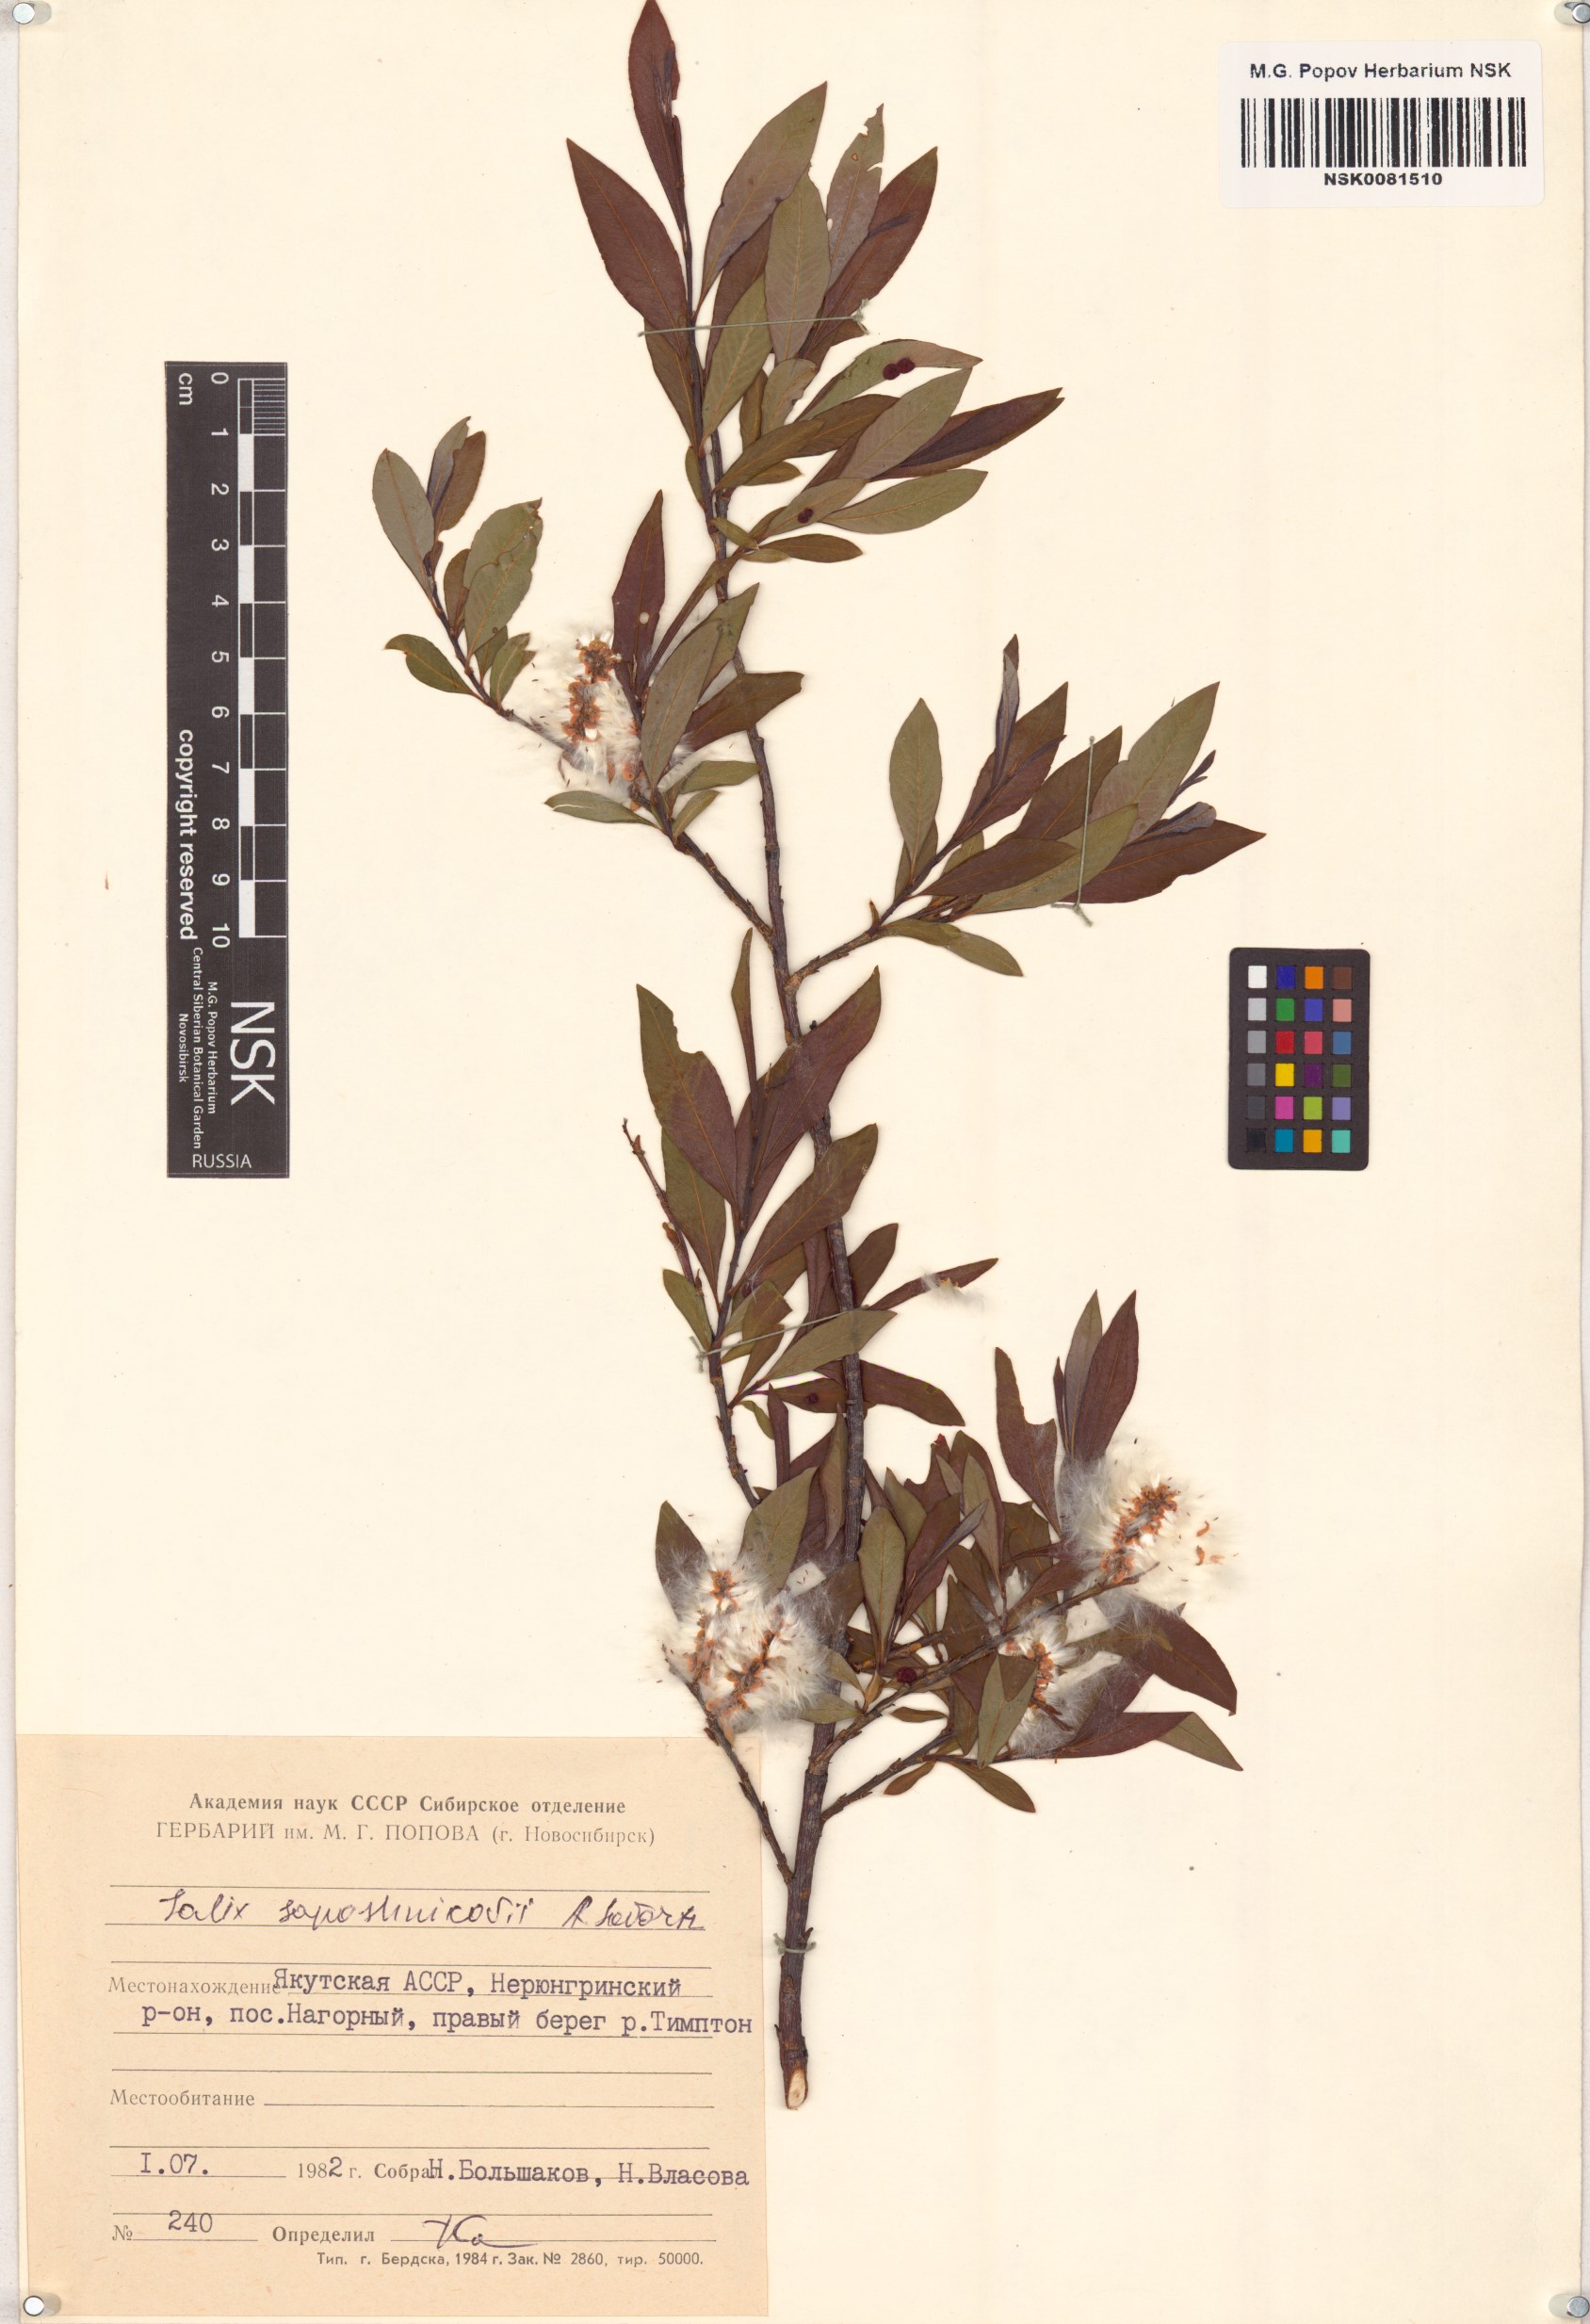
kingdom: Plantae
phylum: Tracheophyta
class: Magnoliopsida
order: Malpighiales
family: Salicaceae
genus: Salix
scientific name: Salix saposhnikovii
